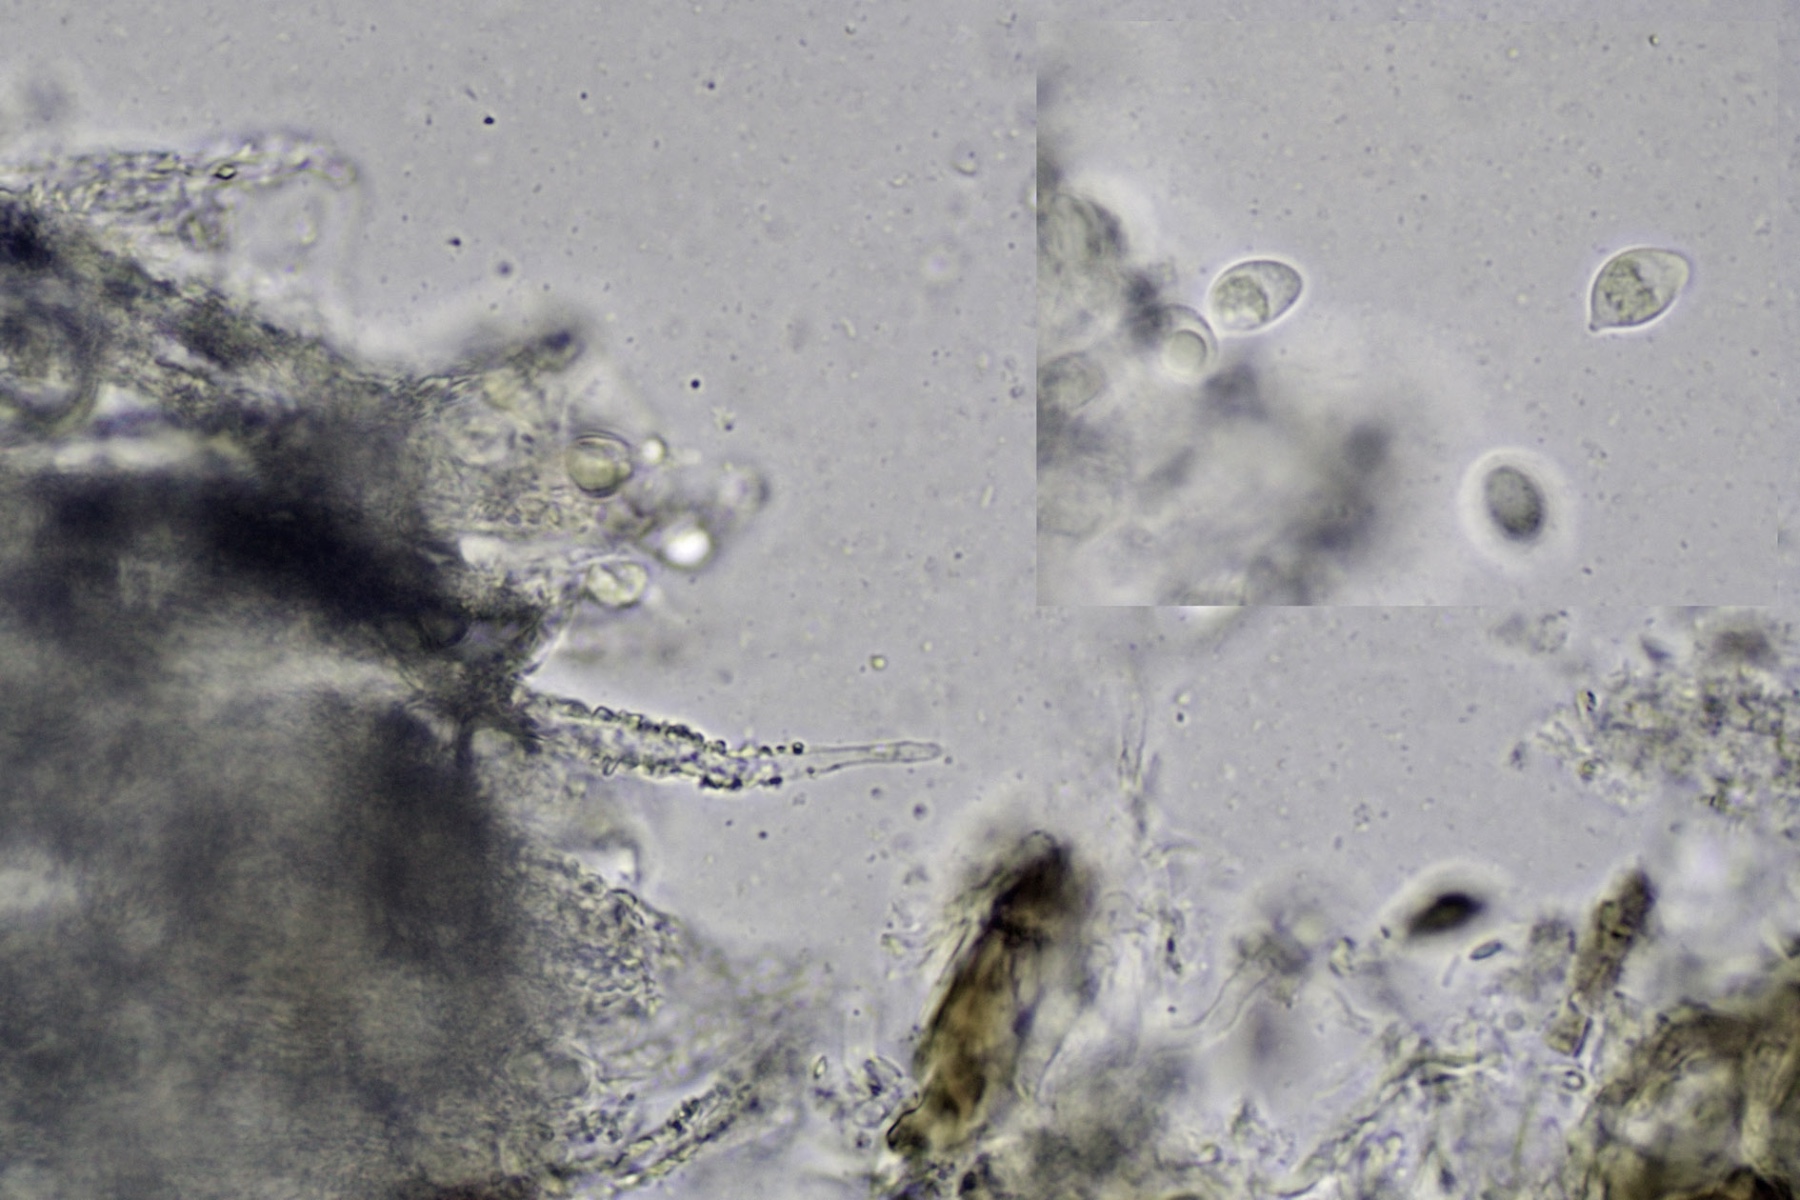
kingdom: Fungi
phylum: Basidiomycota
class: Agaricomycetes
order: Agaricales
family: Niaceae
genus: Flagelloscypha
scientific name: Flagelloscypha minutissima
